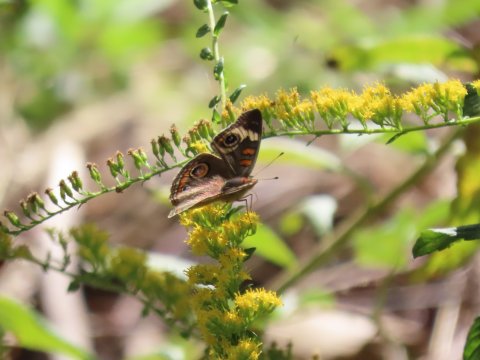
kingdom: Animalia
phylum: Arthropoda
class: Insecta
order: Lepidoptera
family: Nymphalidae
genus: Junonia
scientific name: Junonia coenia
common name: Common Buckeye
